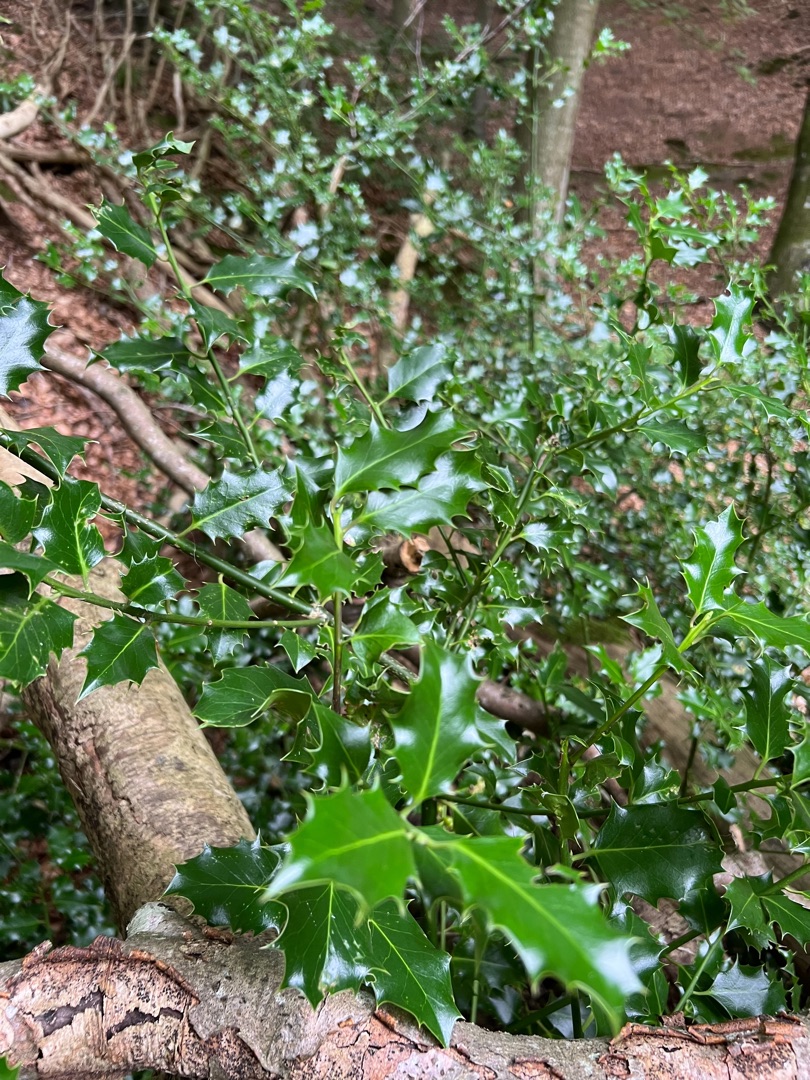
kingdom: Plantae
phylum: Tracheophyta
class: Magnoliopsida
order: Aquifoliales
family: Aquifoliaceae
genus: Ilex
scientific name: Ilex aquifolium
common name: Kristtorn
